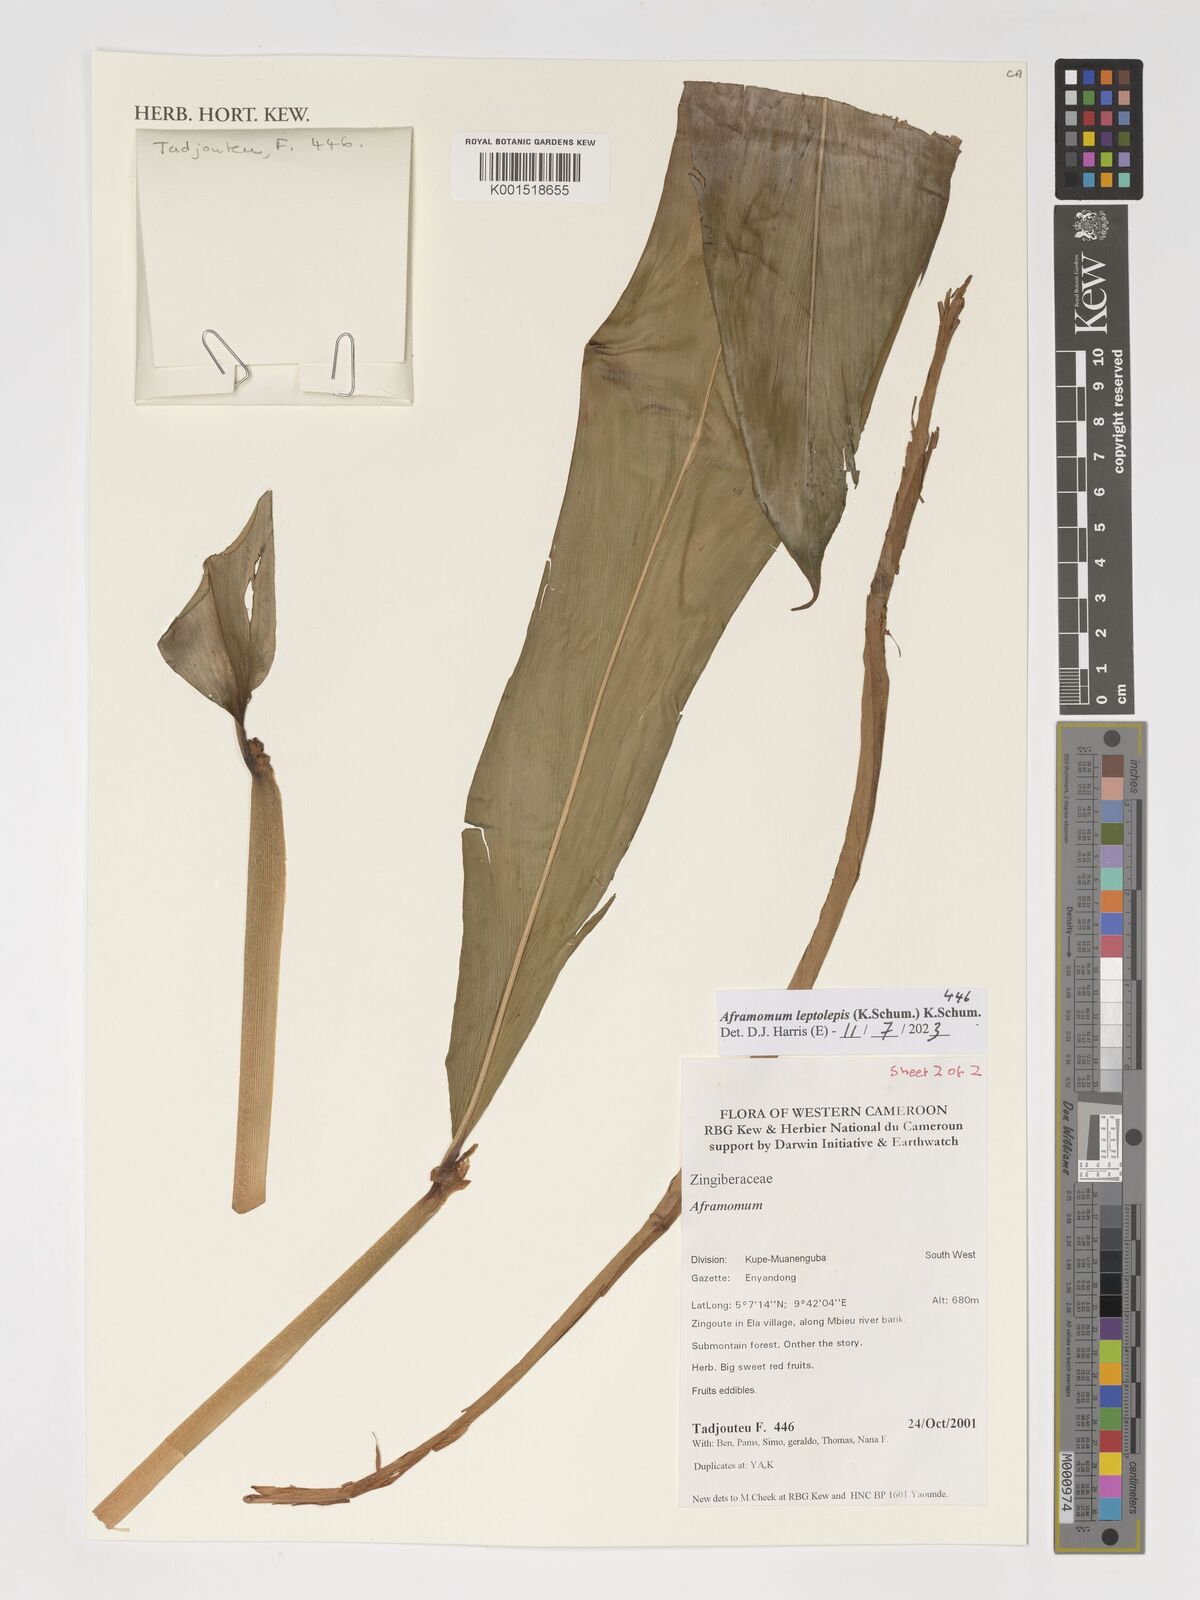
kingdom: Plantae
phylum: Tracheophyta
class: Liliopsida
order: Zingiberales
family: Zingiberaceae
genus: Aframomum
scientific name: Aframomum leptolepis
